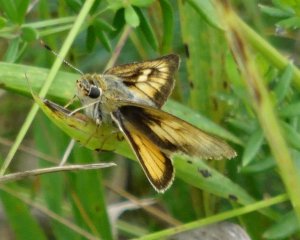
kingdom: Animalia
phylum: Arthropoda
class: Insecta
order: Lepidoptera
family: Hesperiidae
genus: Atrytone
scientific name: Atrytone delaware
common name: Delaware Skipper
